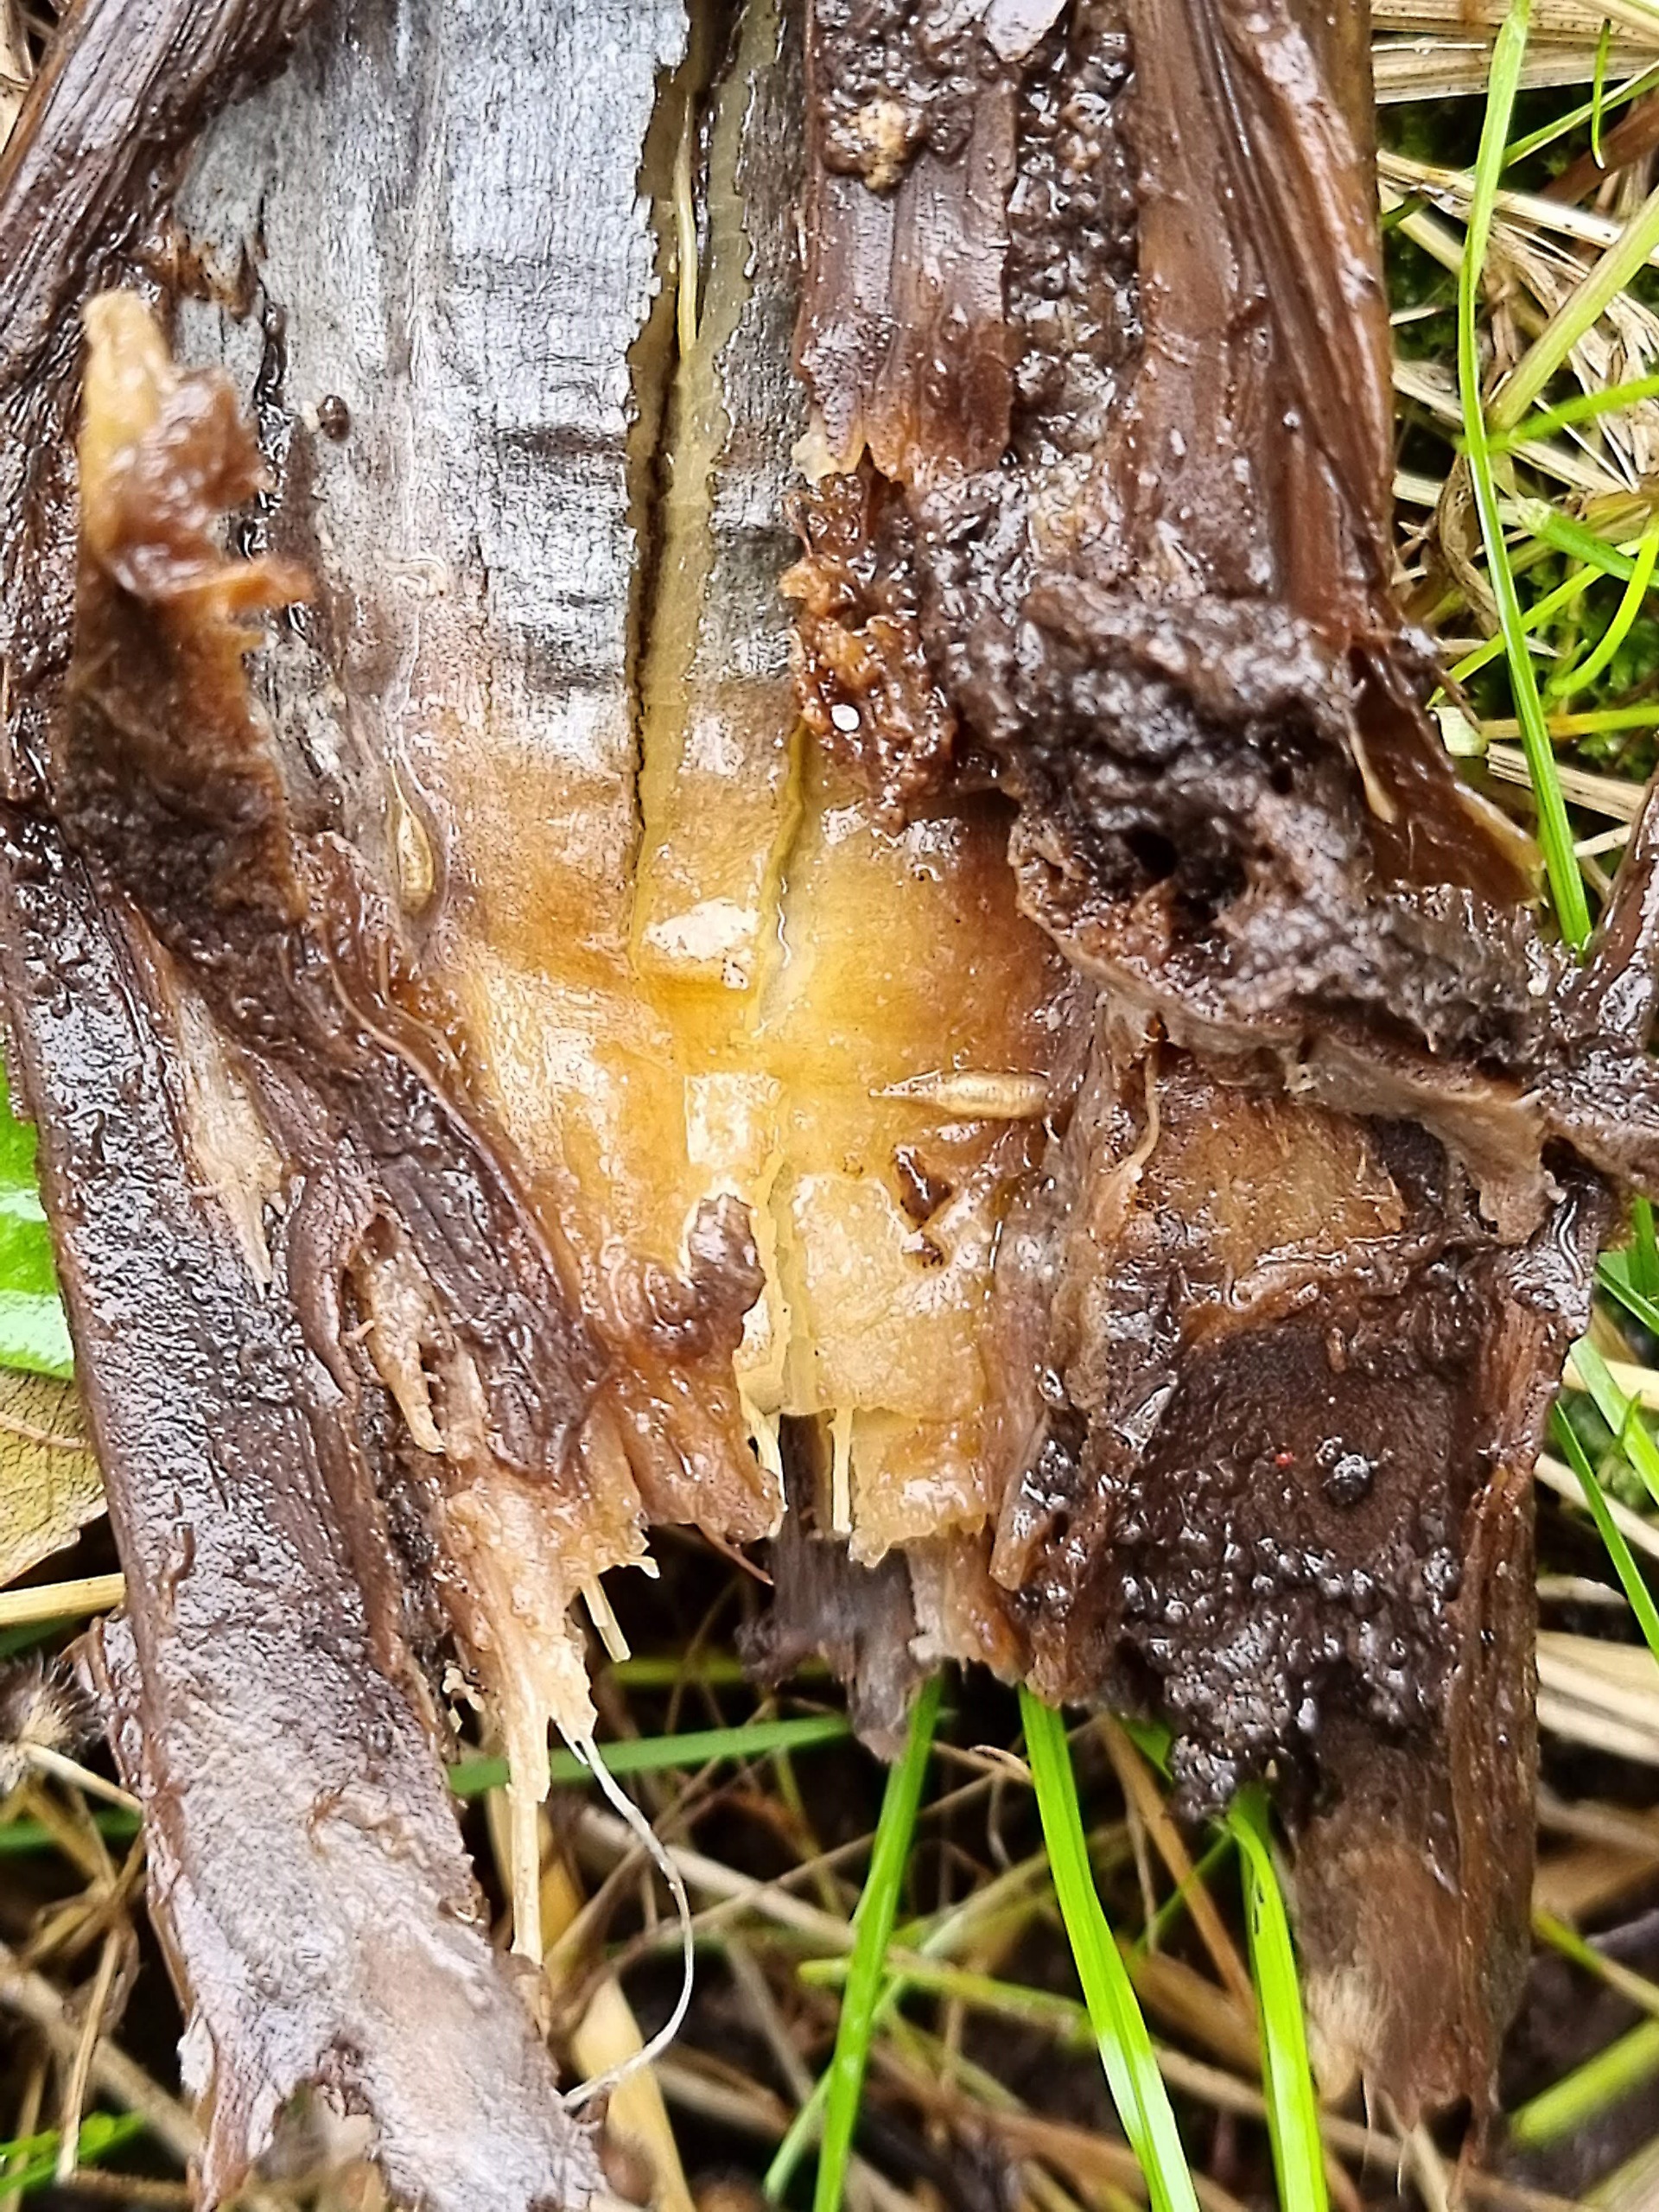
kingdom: Animalia
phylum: Arthropoda
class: Insecta
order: Diptera
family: Syrphidae
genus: Neoascia
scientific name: Neoascia obliqua
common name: Skråbåndet køllesvirreflue
